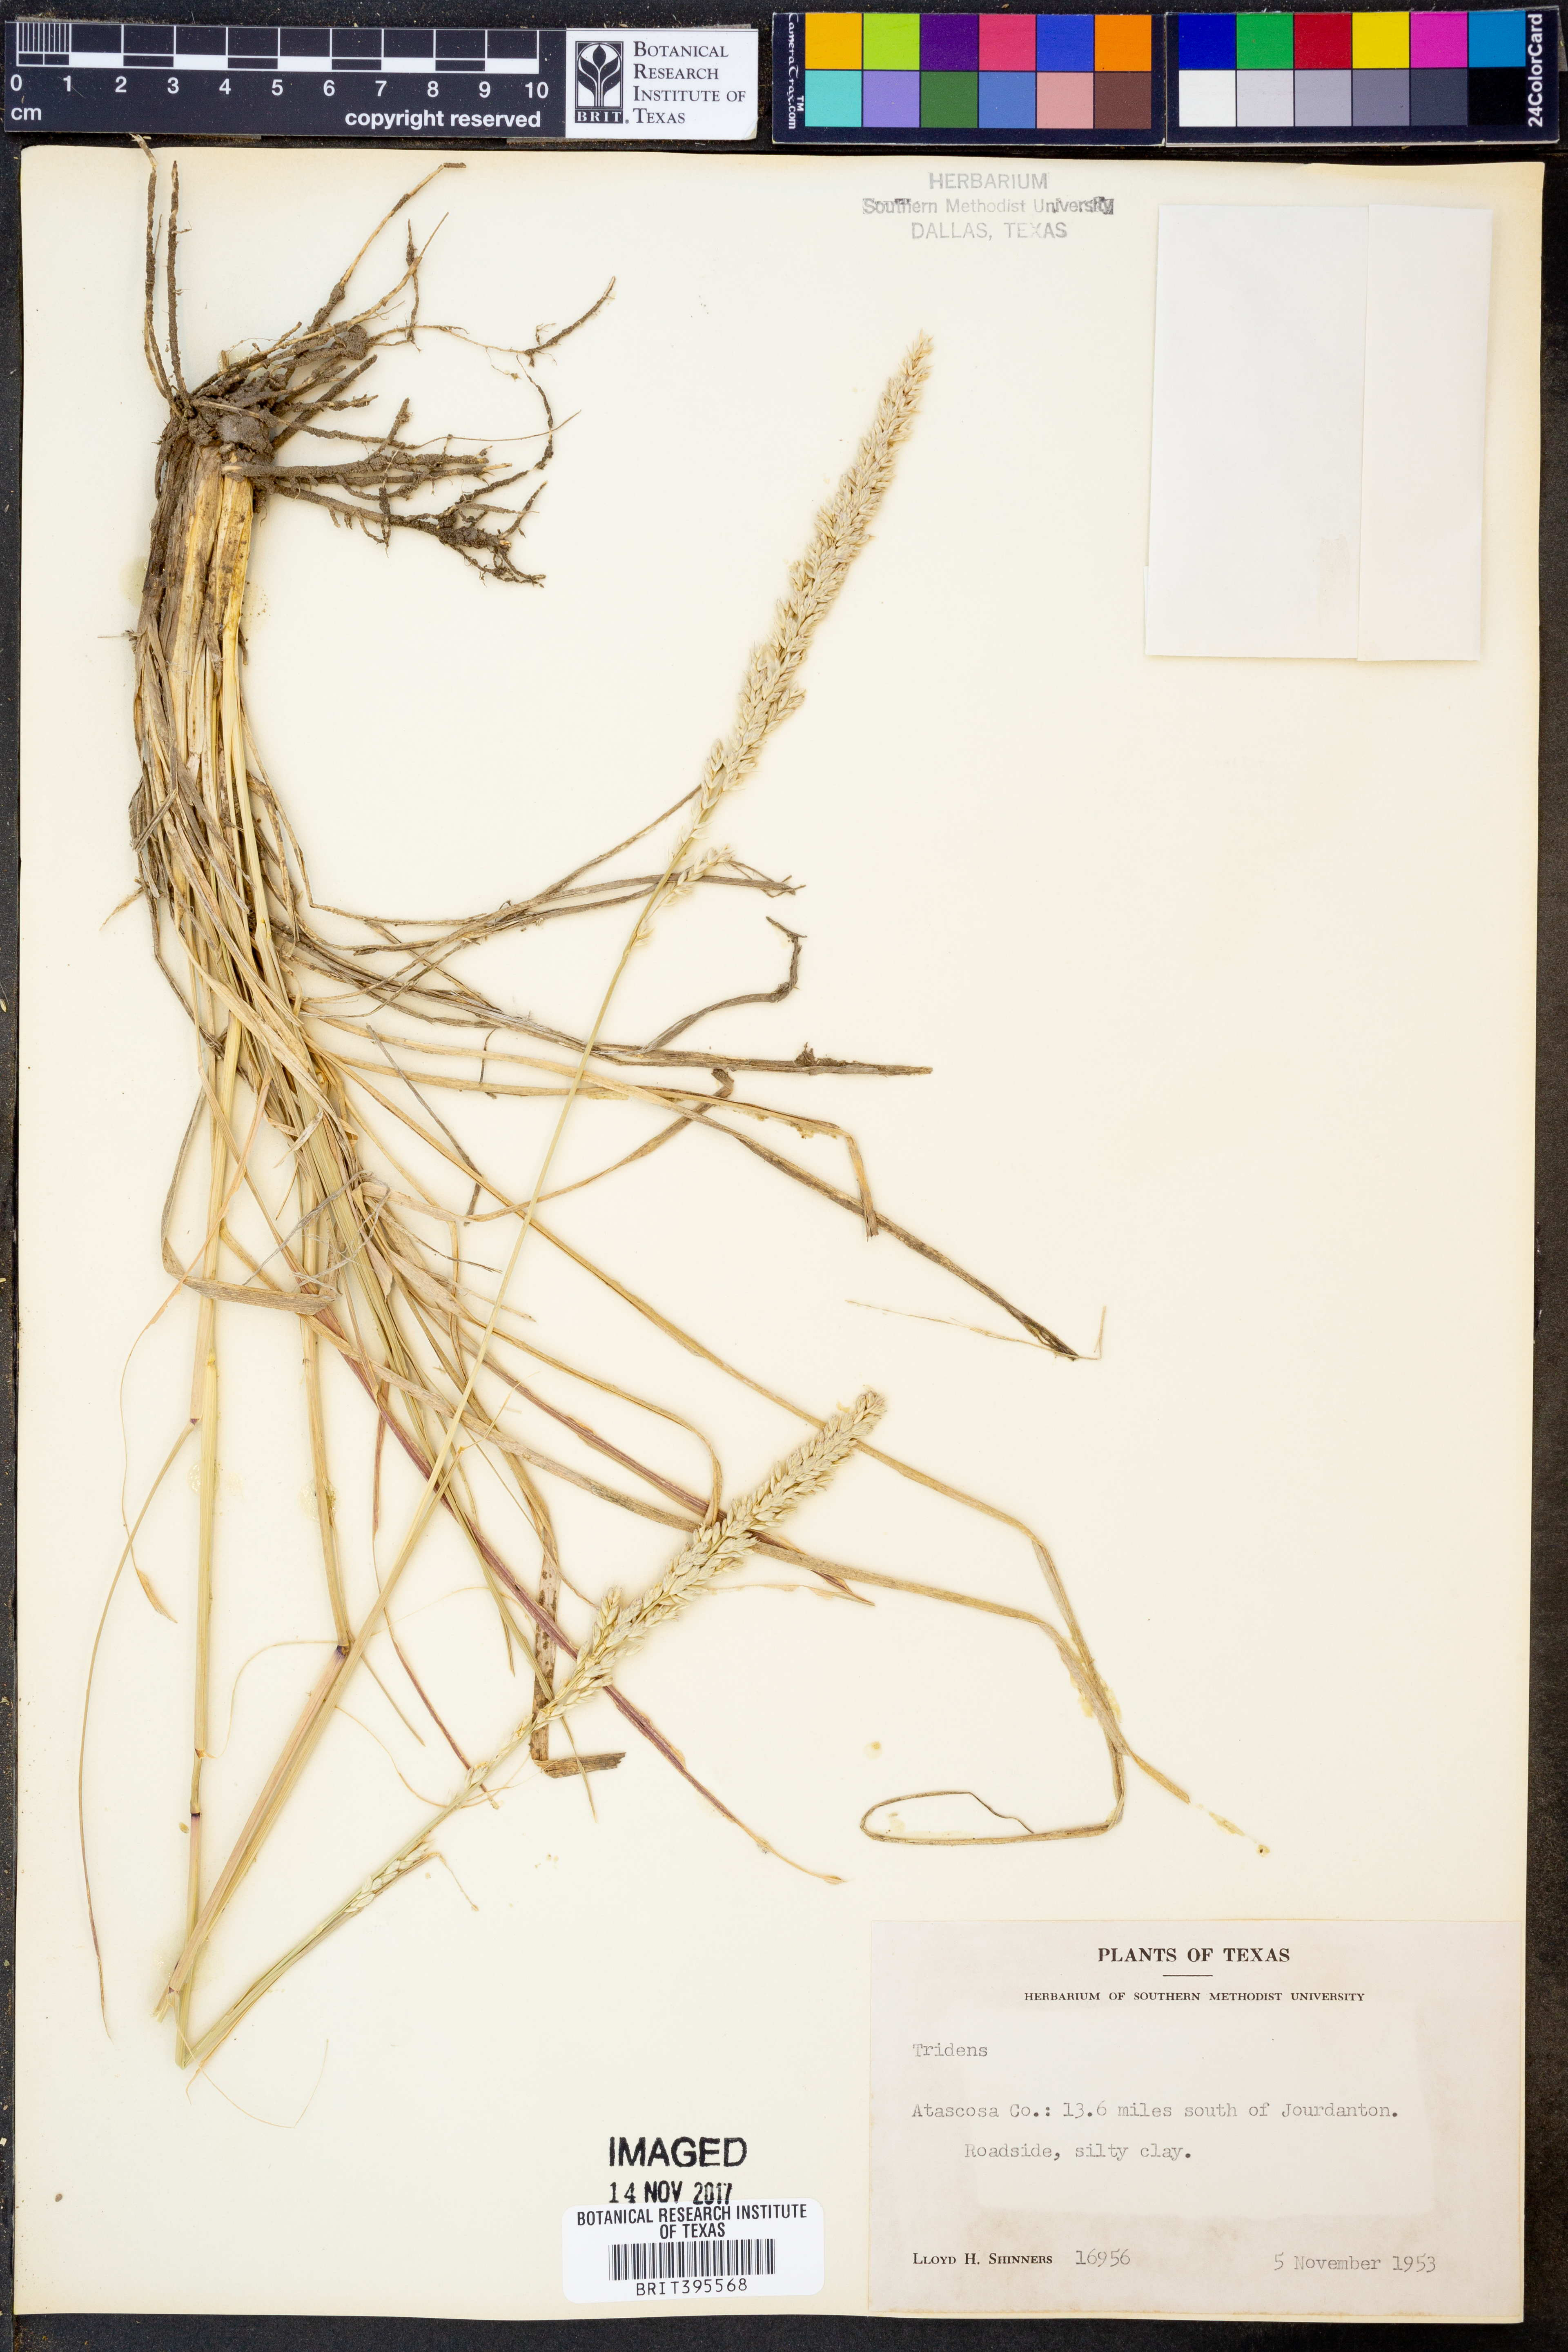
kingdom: Plantae
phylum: Tracheophyta
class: Liliopsida
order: Poales
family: Poaceae
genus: Tridens
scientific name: Tridens
